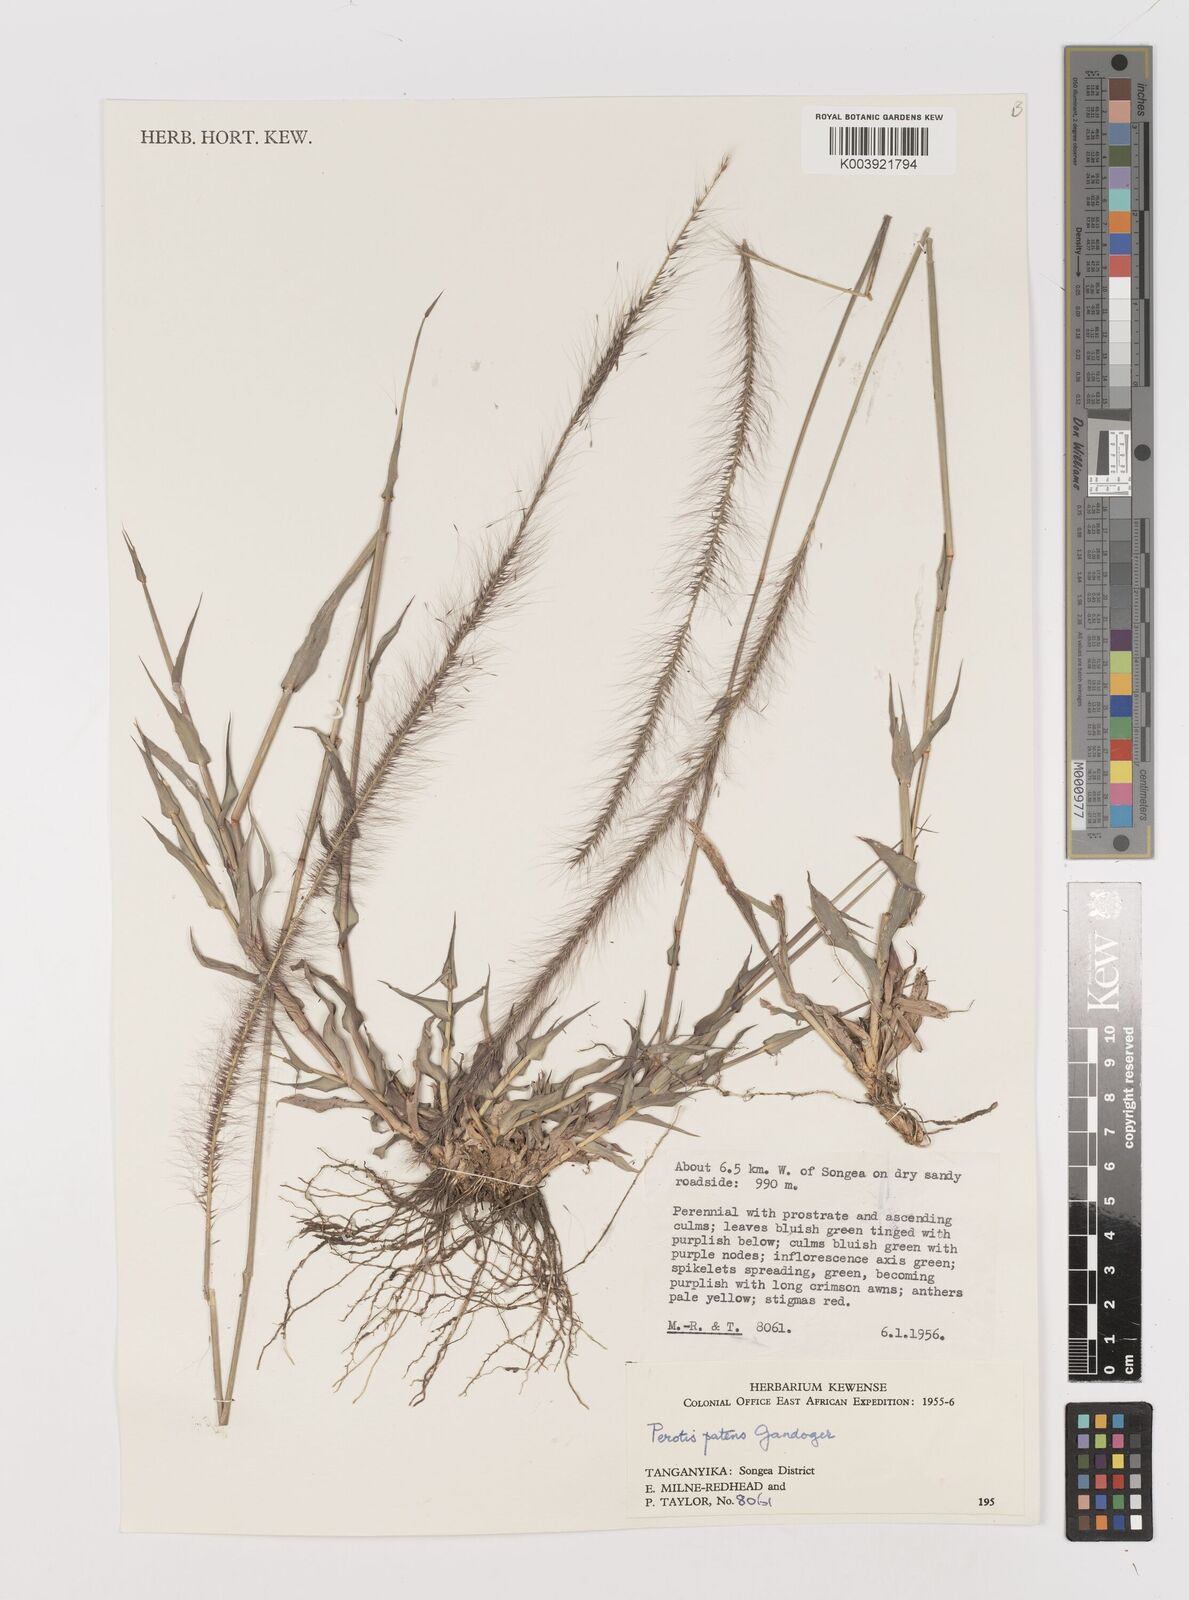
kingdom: Plantae
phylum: Tracheophyta
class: Liliopsida
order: Poales
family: Poaceae
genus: Perotis
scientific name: Perotis patens
